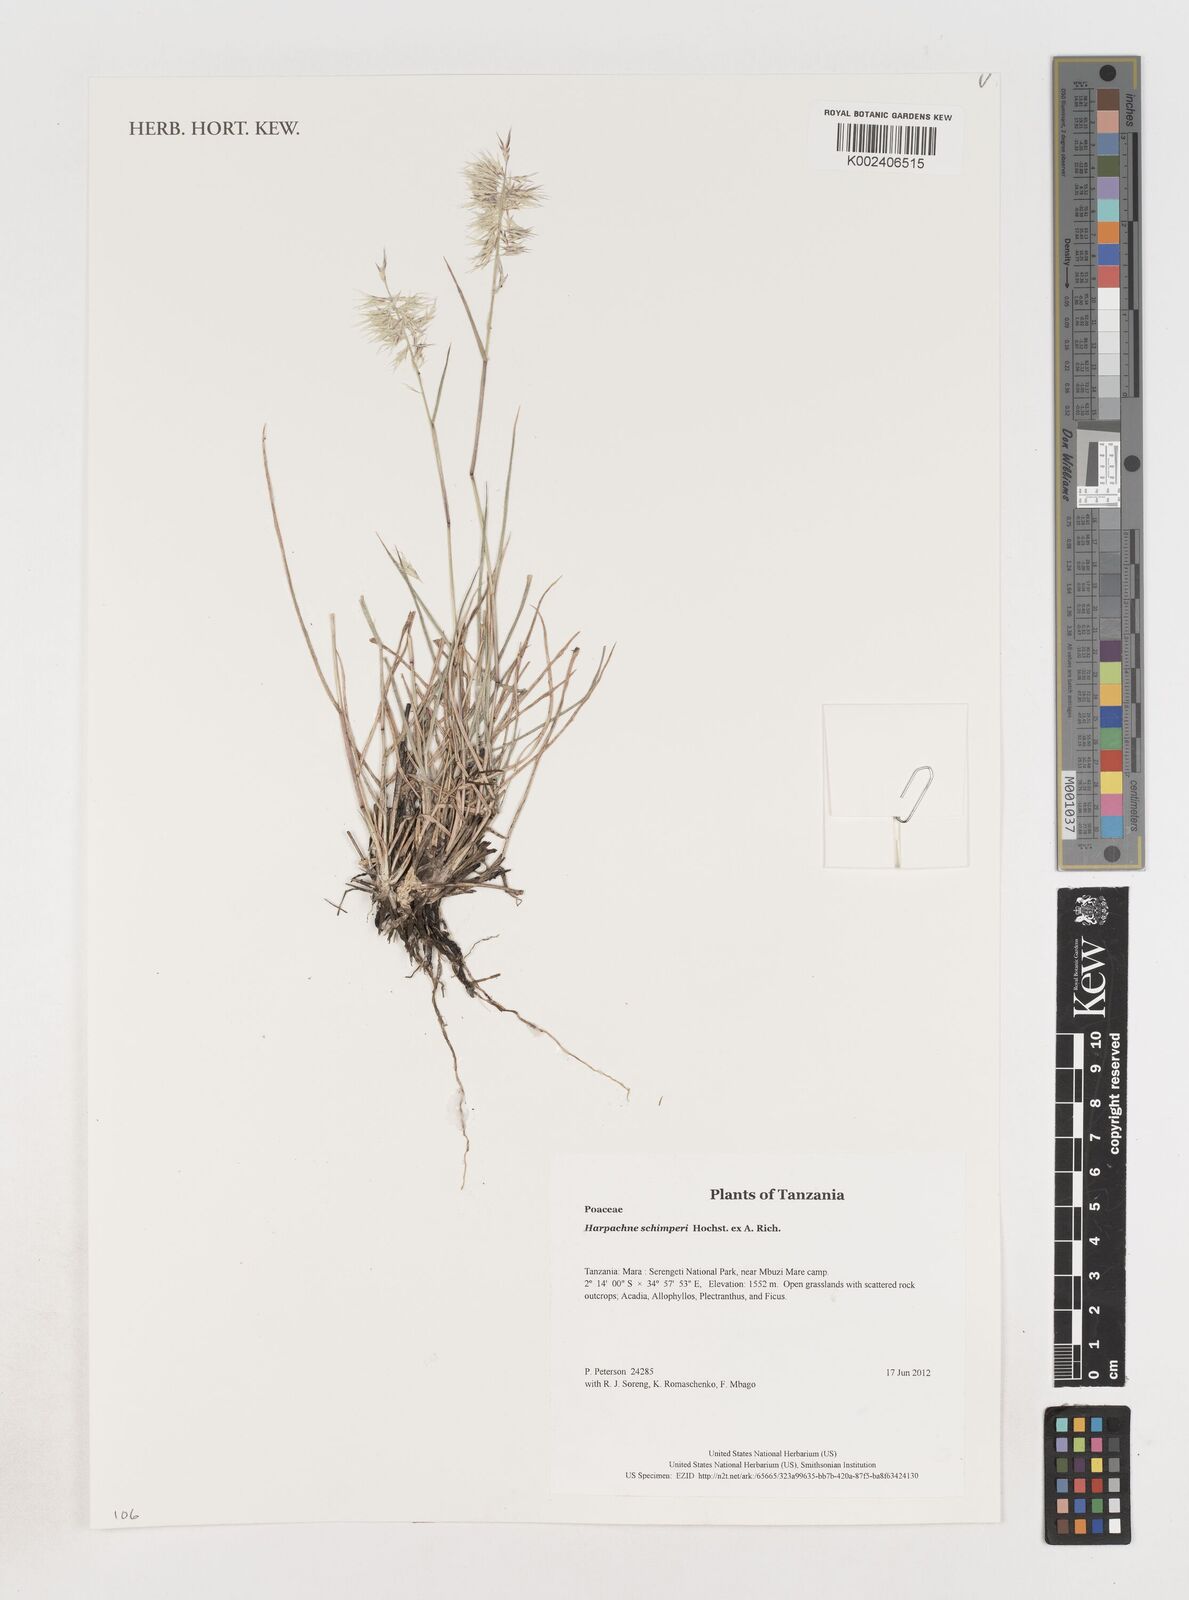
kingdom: Plantae
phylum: Tracheophyta
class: Liliopsida
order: Poales
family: Poaceae
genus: Harpachne
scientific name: Harpachne schimperi
